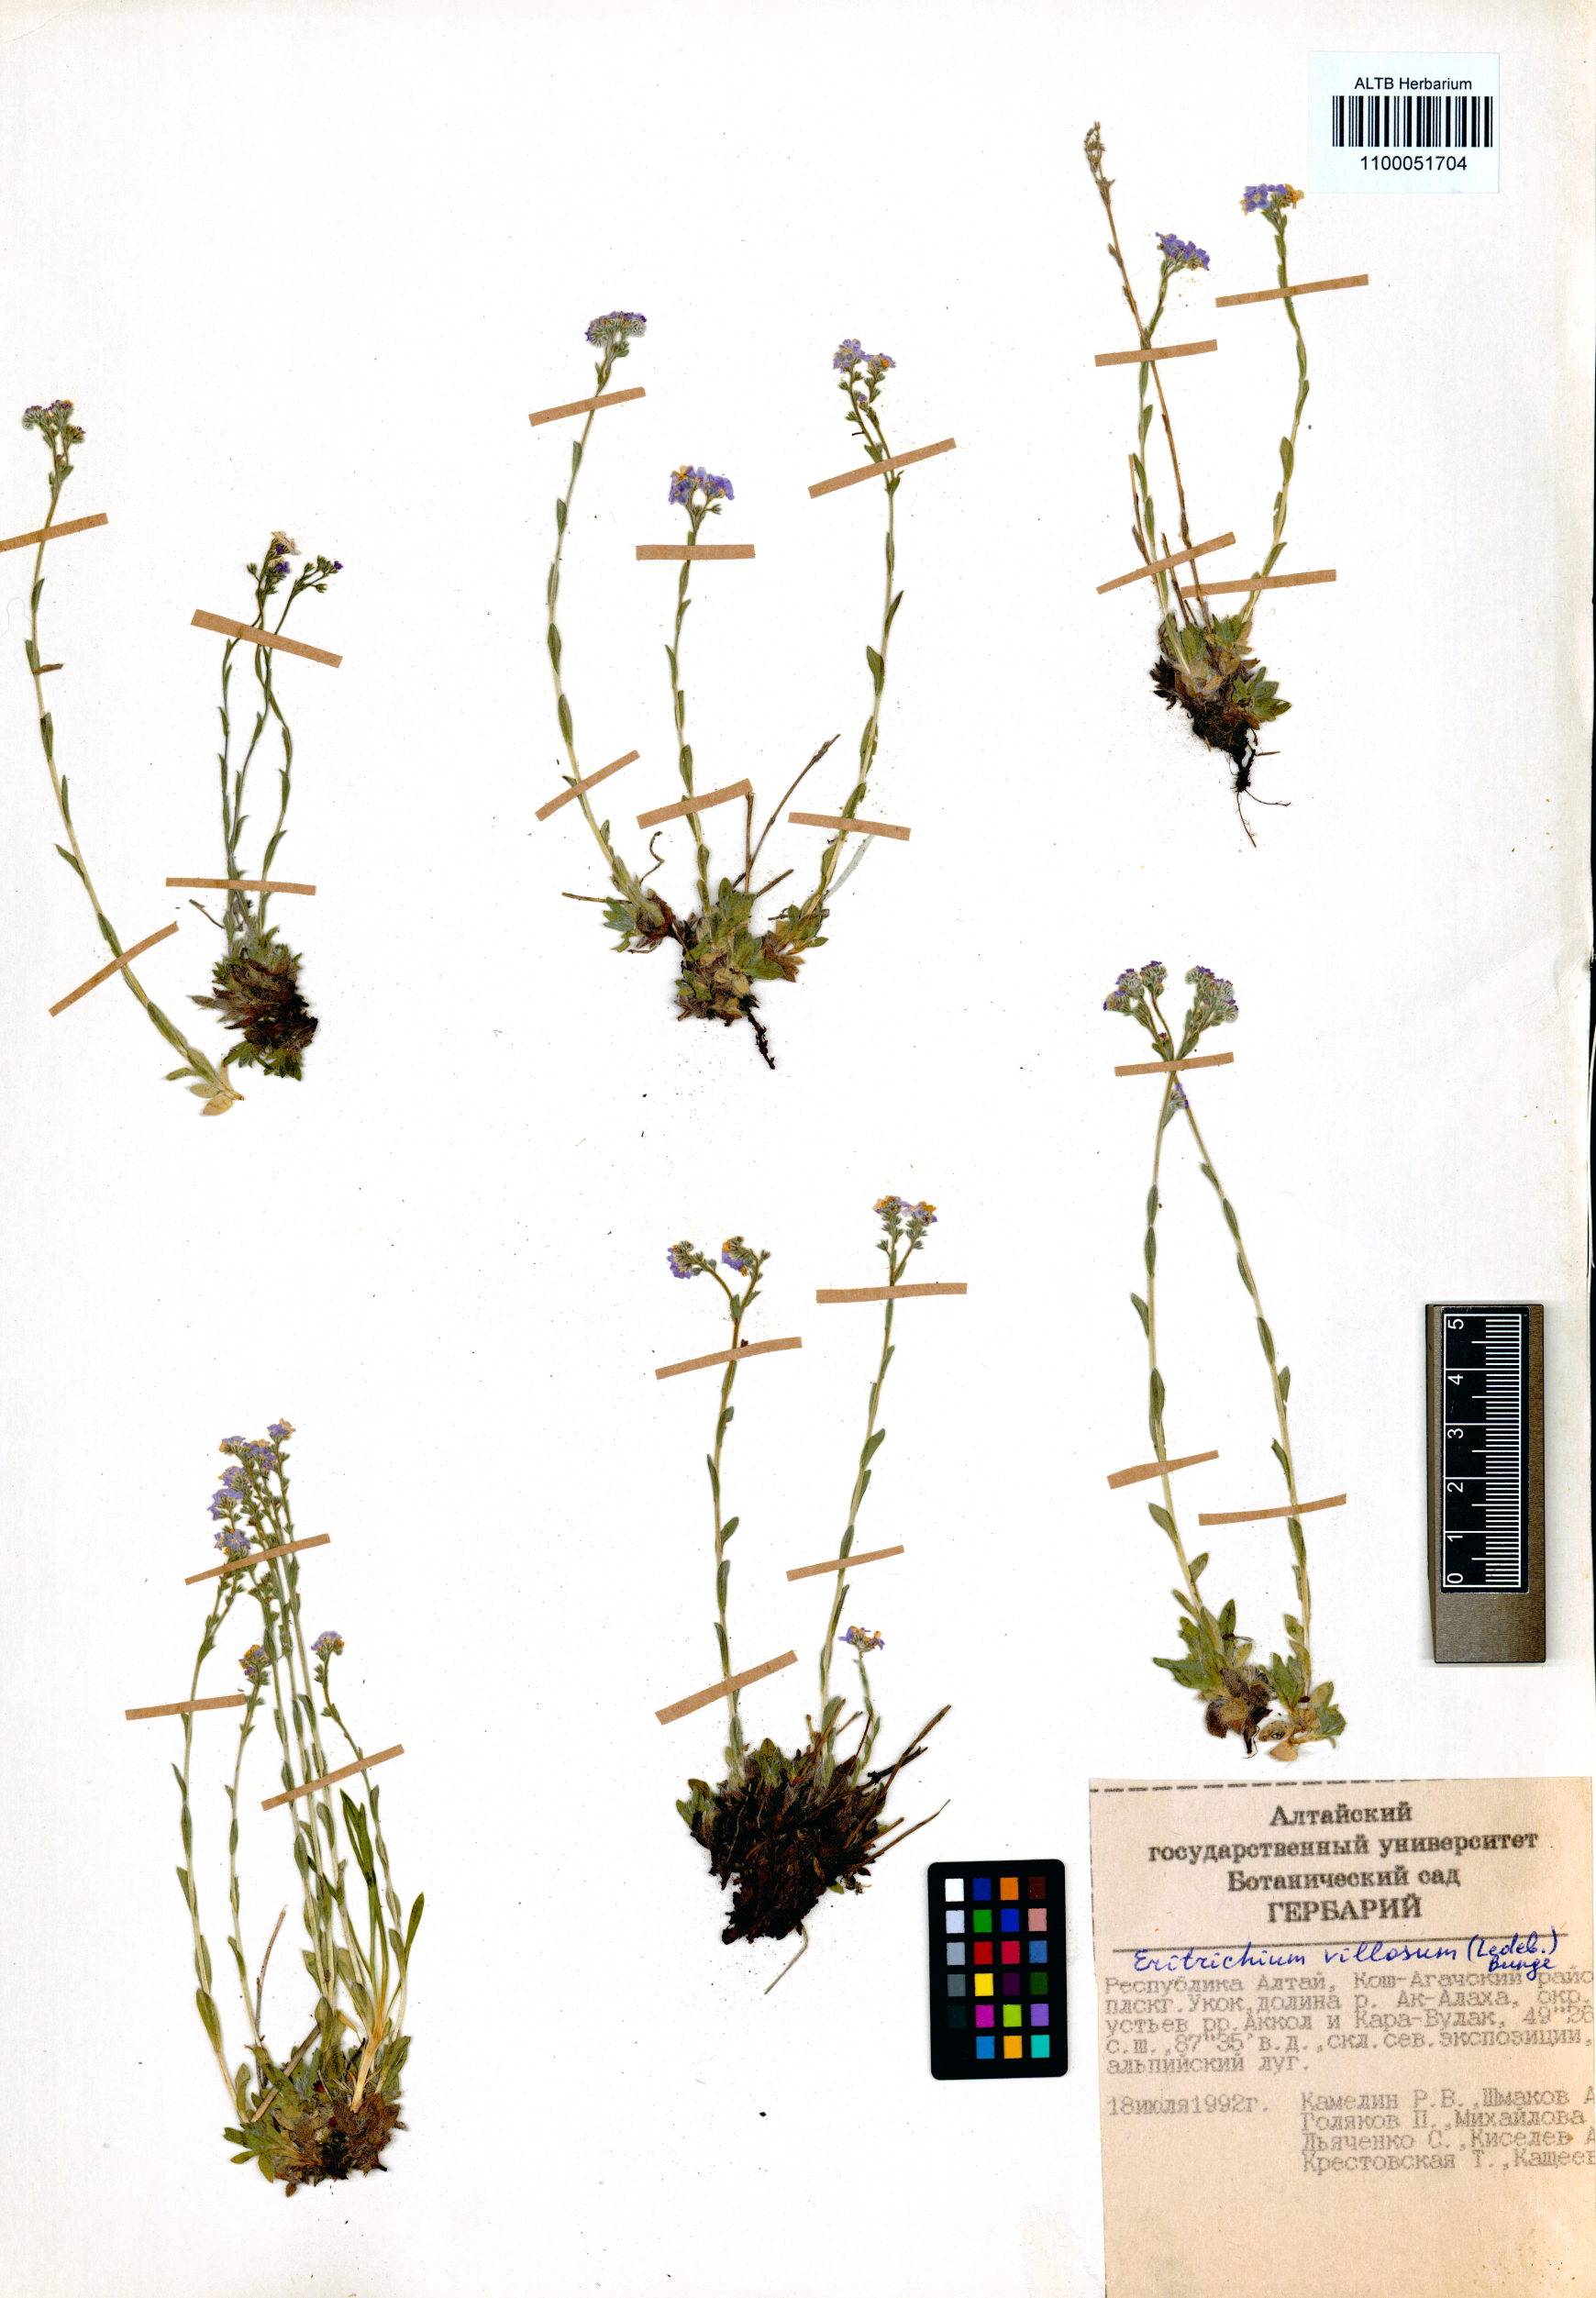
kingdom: Plantae
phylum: Tracheophyta
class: Magnoliopsida
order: Boraginales
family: Boraginaceae
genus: Eritrichium
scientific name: Eritrichium villosum
